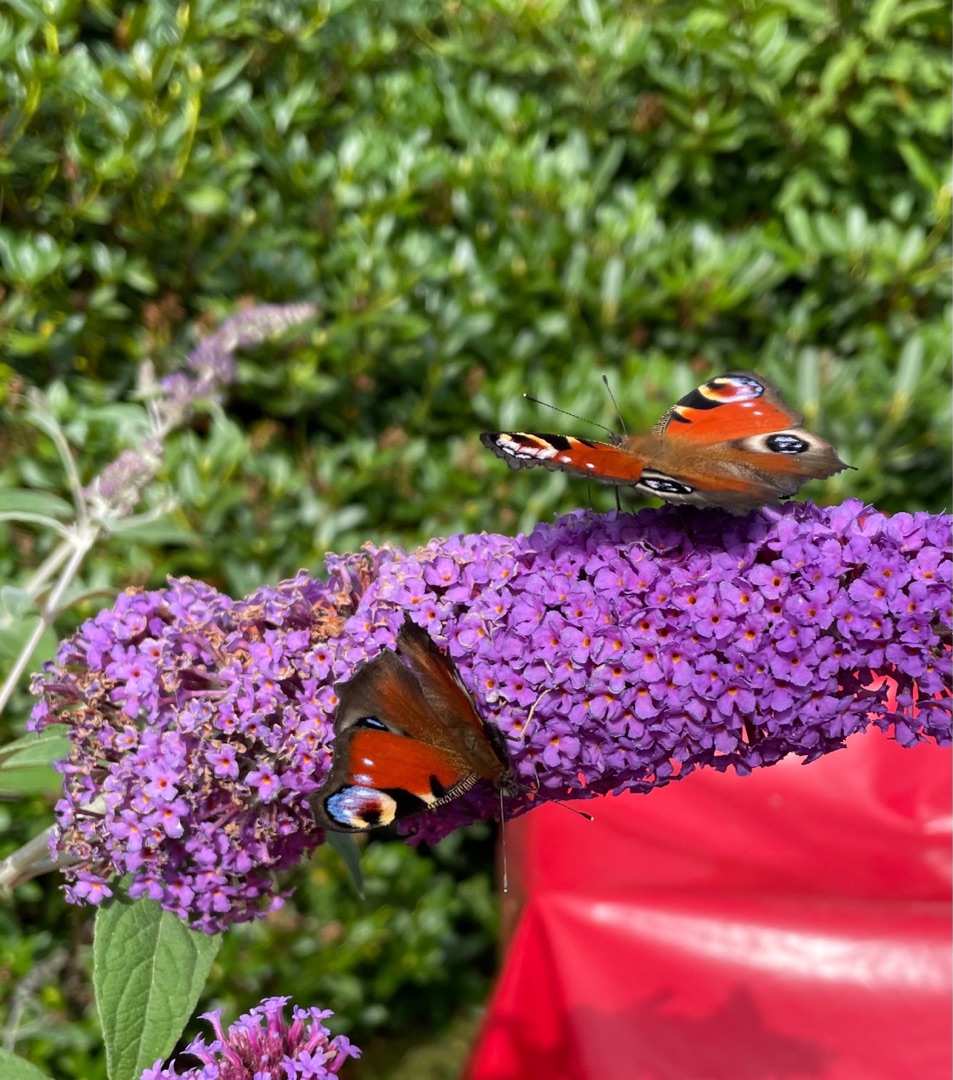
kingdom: Animalia
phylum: Arthropoda
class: Insecta
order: Lepidoptera
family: Nymphalidae
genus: Aglais
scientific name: Aglais io
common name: Dagpåfugleøje
